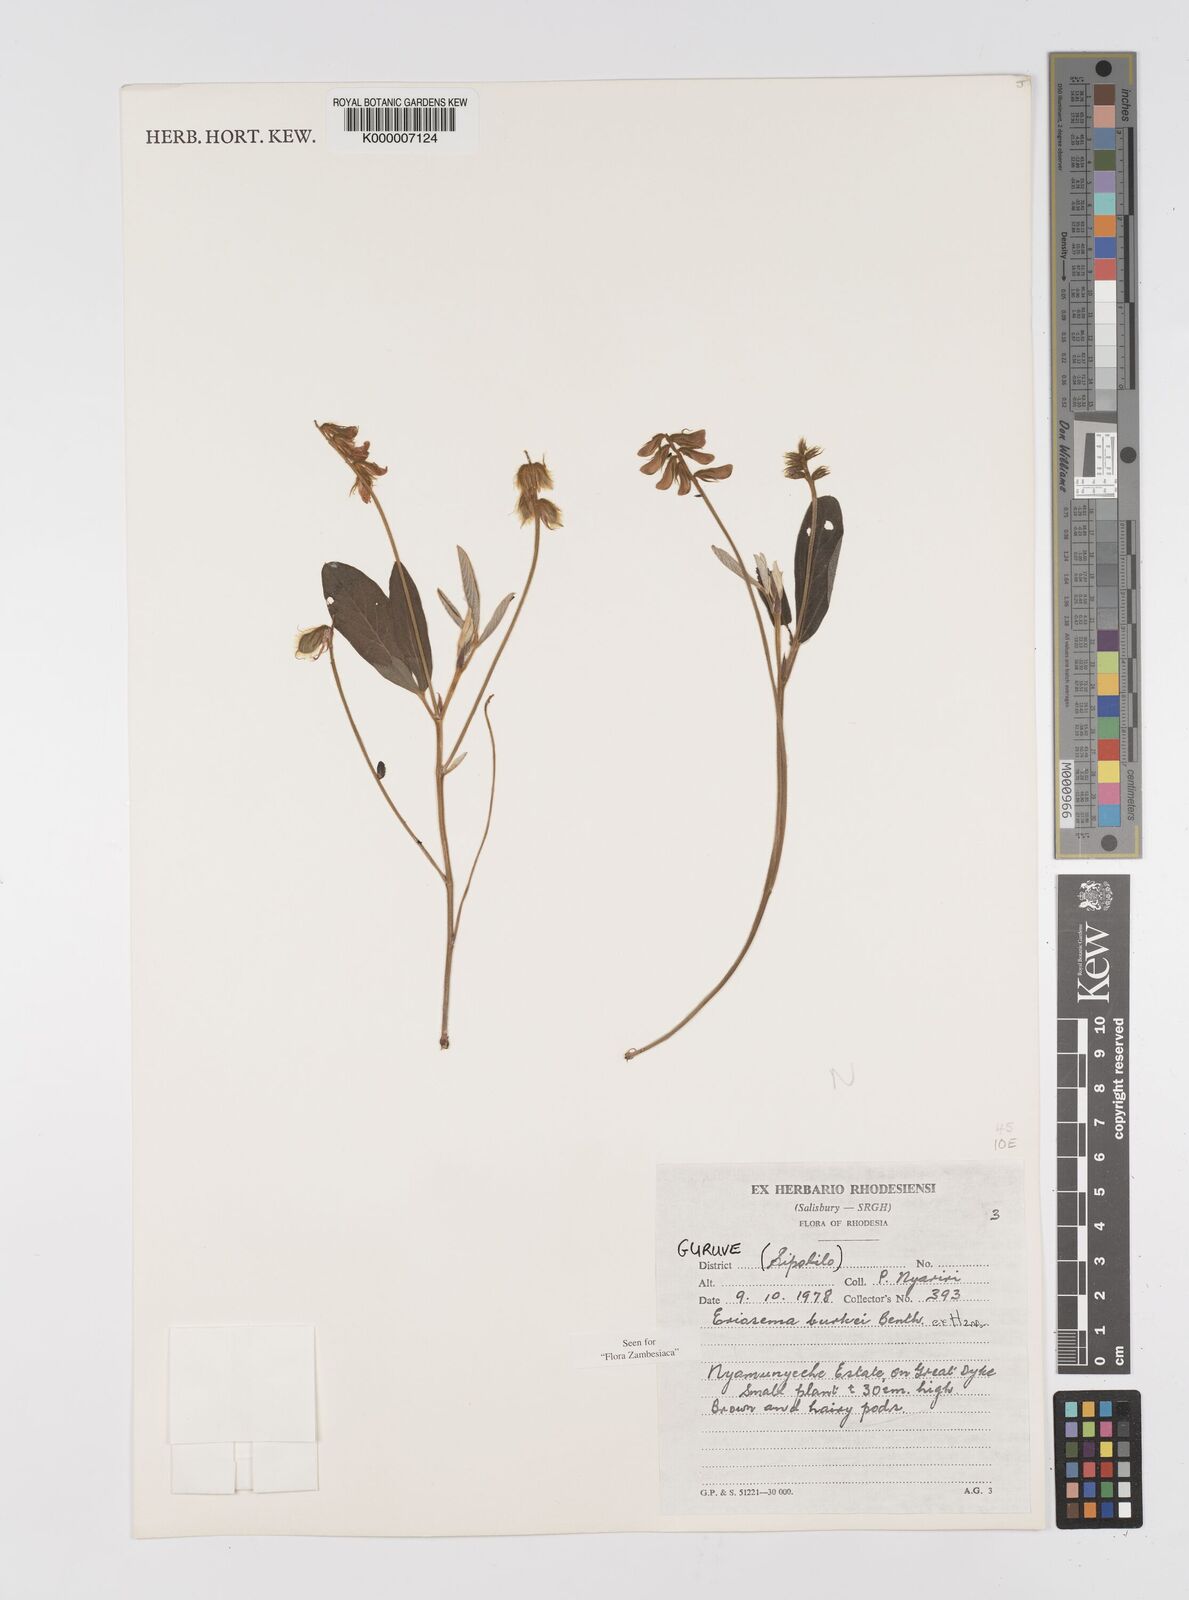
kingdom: Plantae
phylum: Tracheophyta
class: Magnoliopsida
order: Fabales
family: Fabaceae
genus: Eriosema
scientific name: Eriosema burkei
